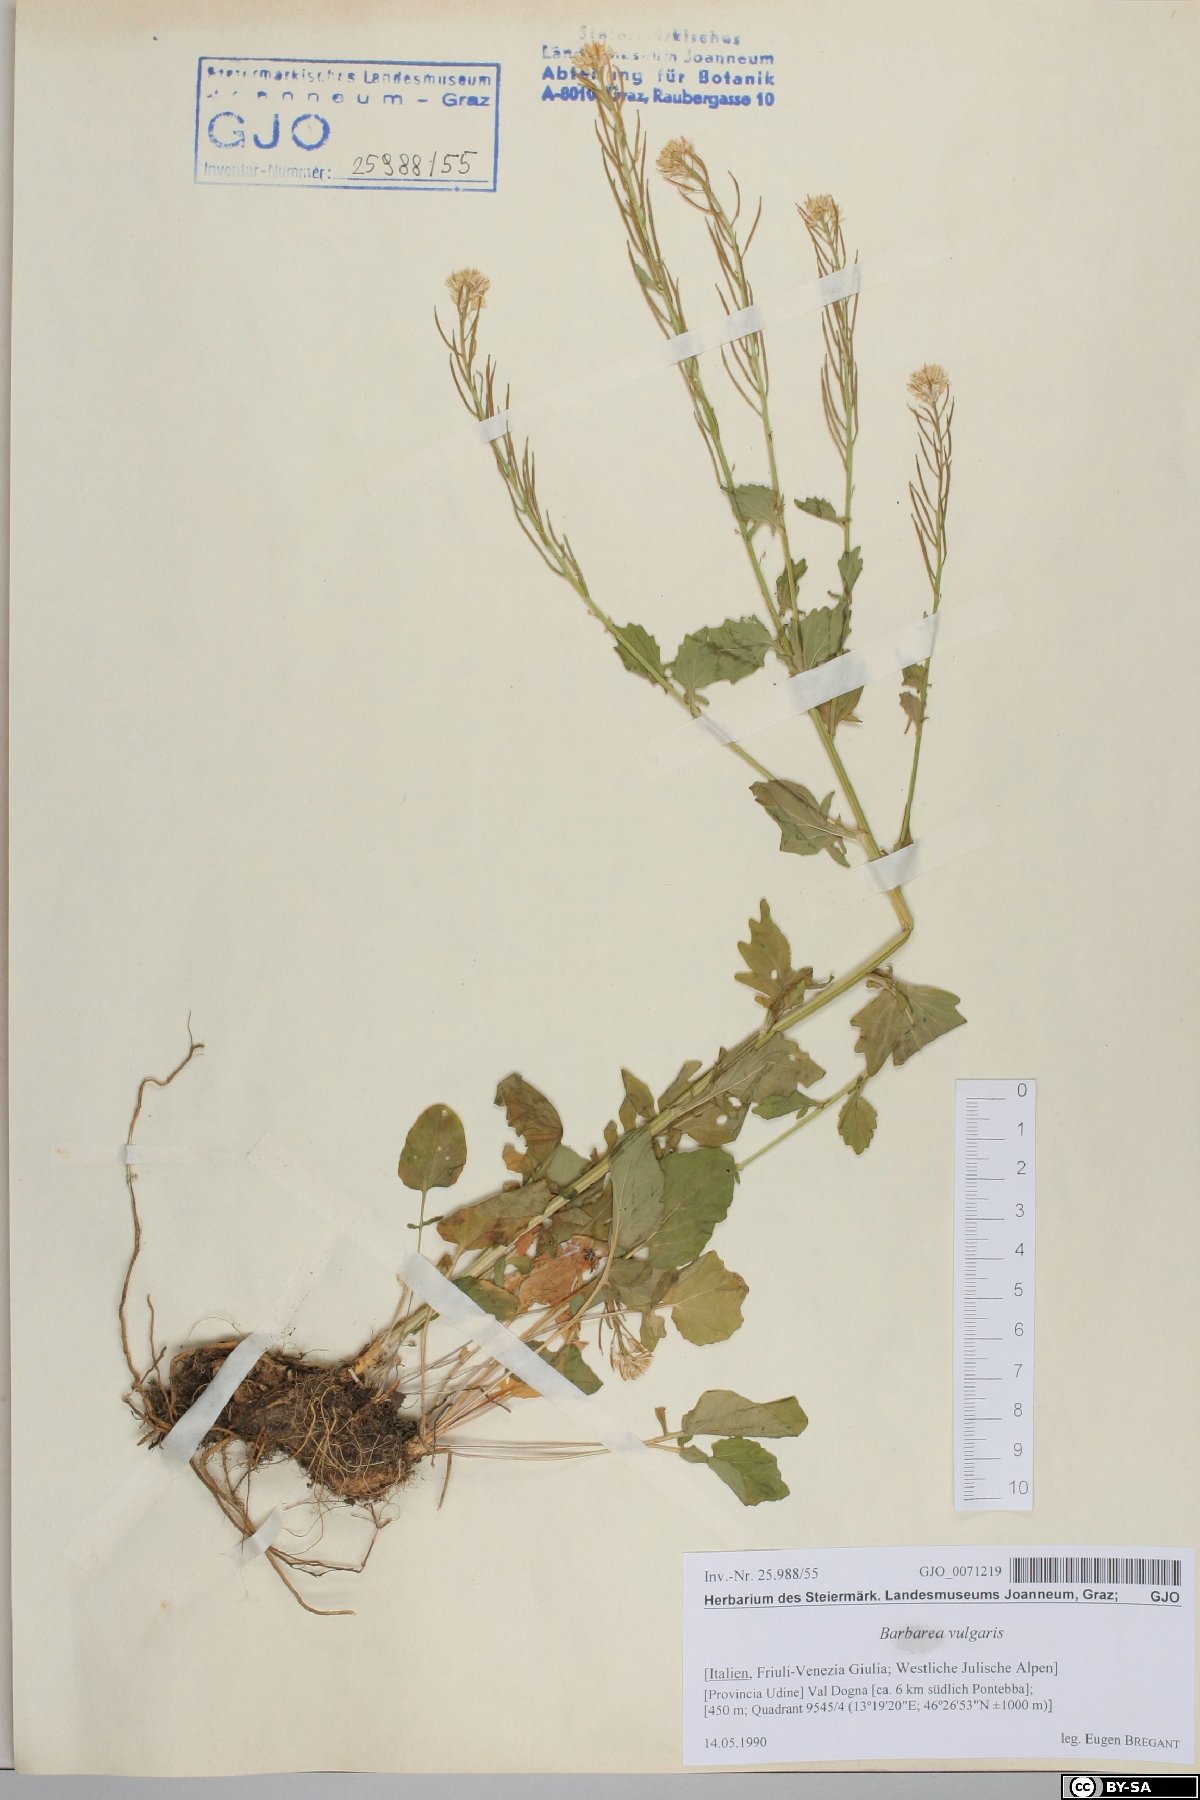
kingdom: Plantae
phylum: Tracheophyta
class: Magnoliopsida
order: Brassicales
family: Brassicaceae
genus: Barbarea
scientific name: Barbarea vulgaris
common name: Cressy-greens
